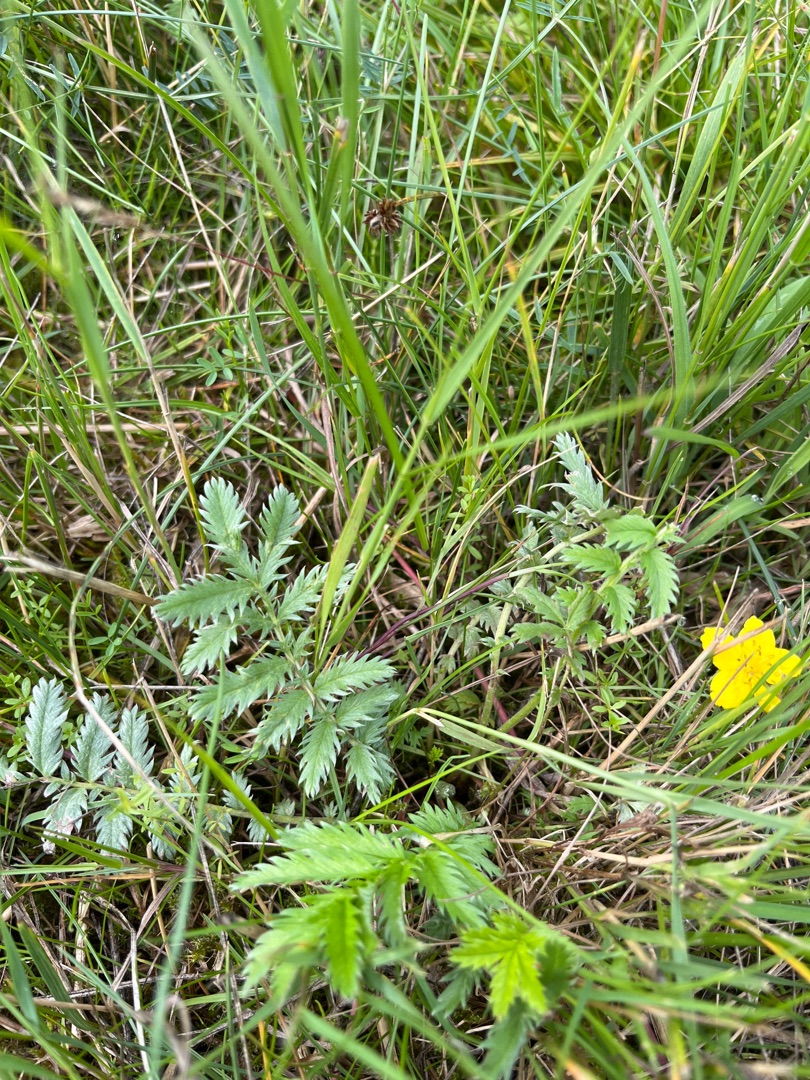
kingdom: Plantae
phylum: Tracheophyta
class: Magnoliopsida
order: Rosales
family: Rosaceae
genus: Argentina
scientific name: Argentina anserina
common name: Gåsepotentil
